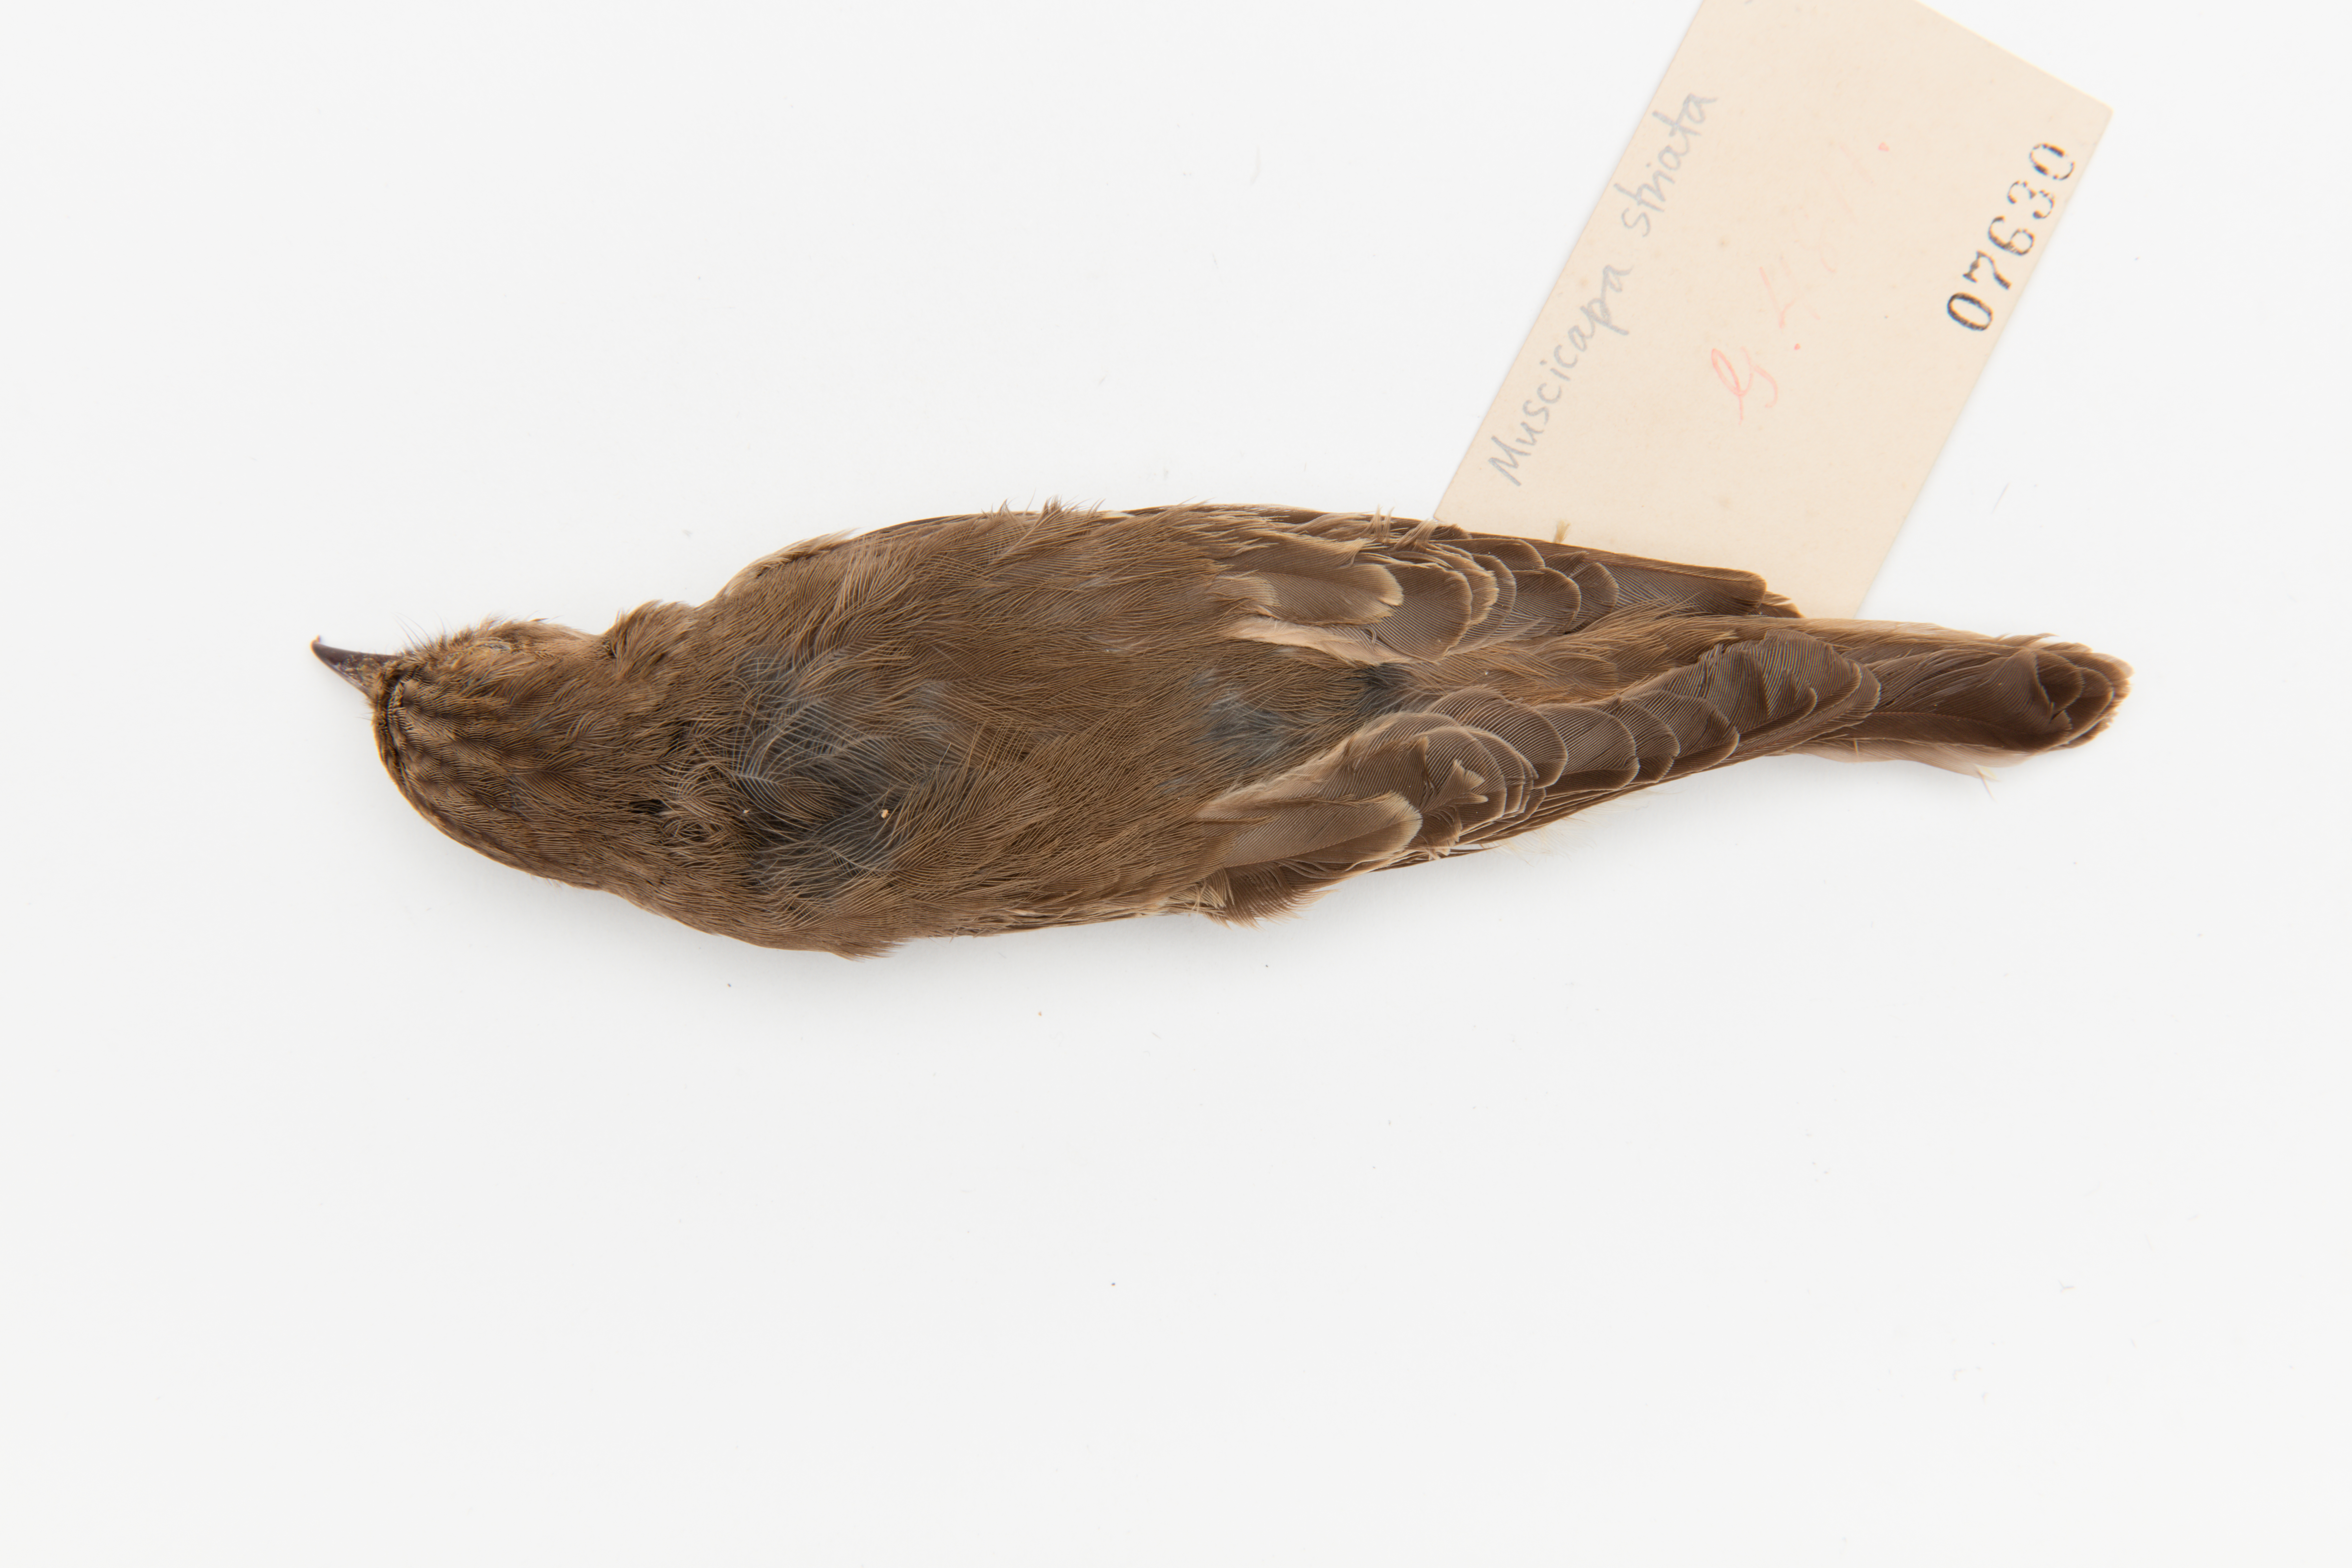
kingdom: Animalia
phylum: Chordata
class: Aves
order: Passeriformes
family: Muscicapidae
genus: Muscicapa
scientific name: Muscicapa striata
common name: Spotted flycatcher
